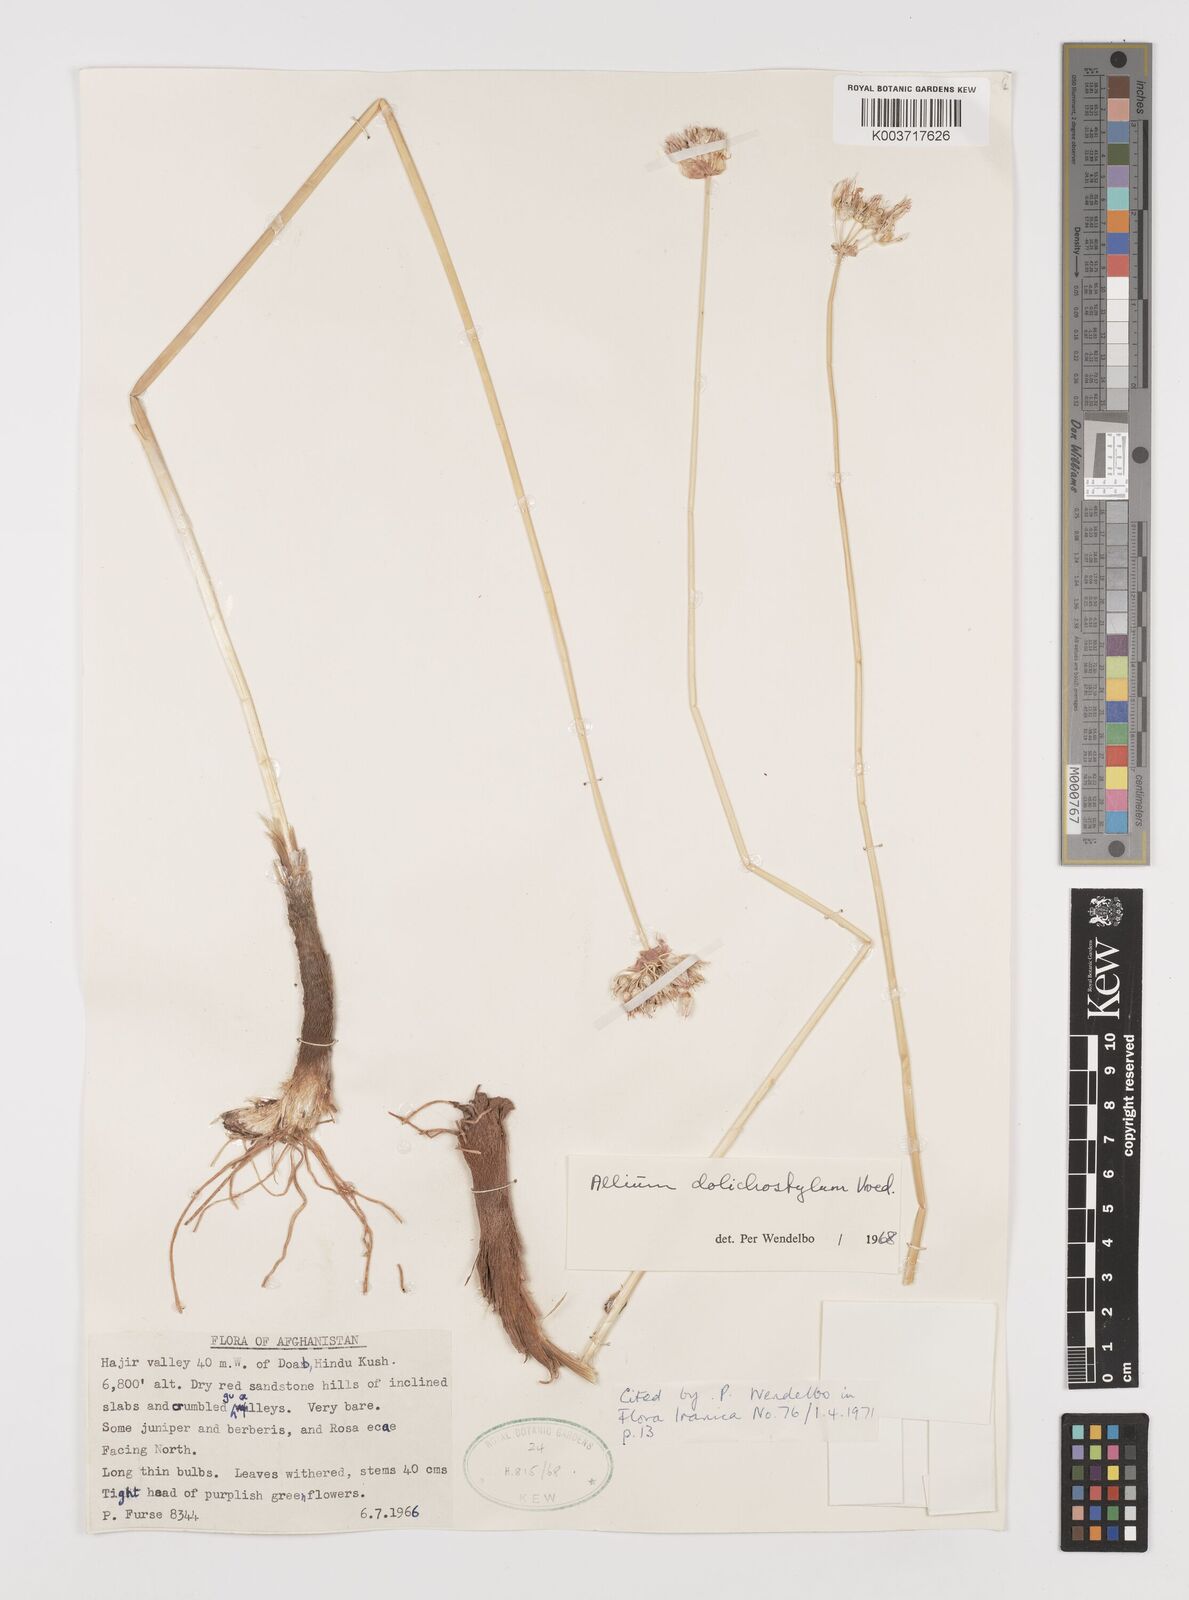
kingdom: Plantae
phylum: Tracheophyta
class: Liliopsida
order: Asparagales
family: Amaryllidaceae
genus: Allium
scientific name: Allium dolichostylum
